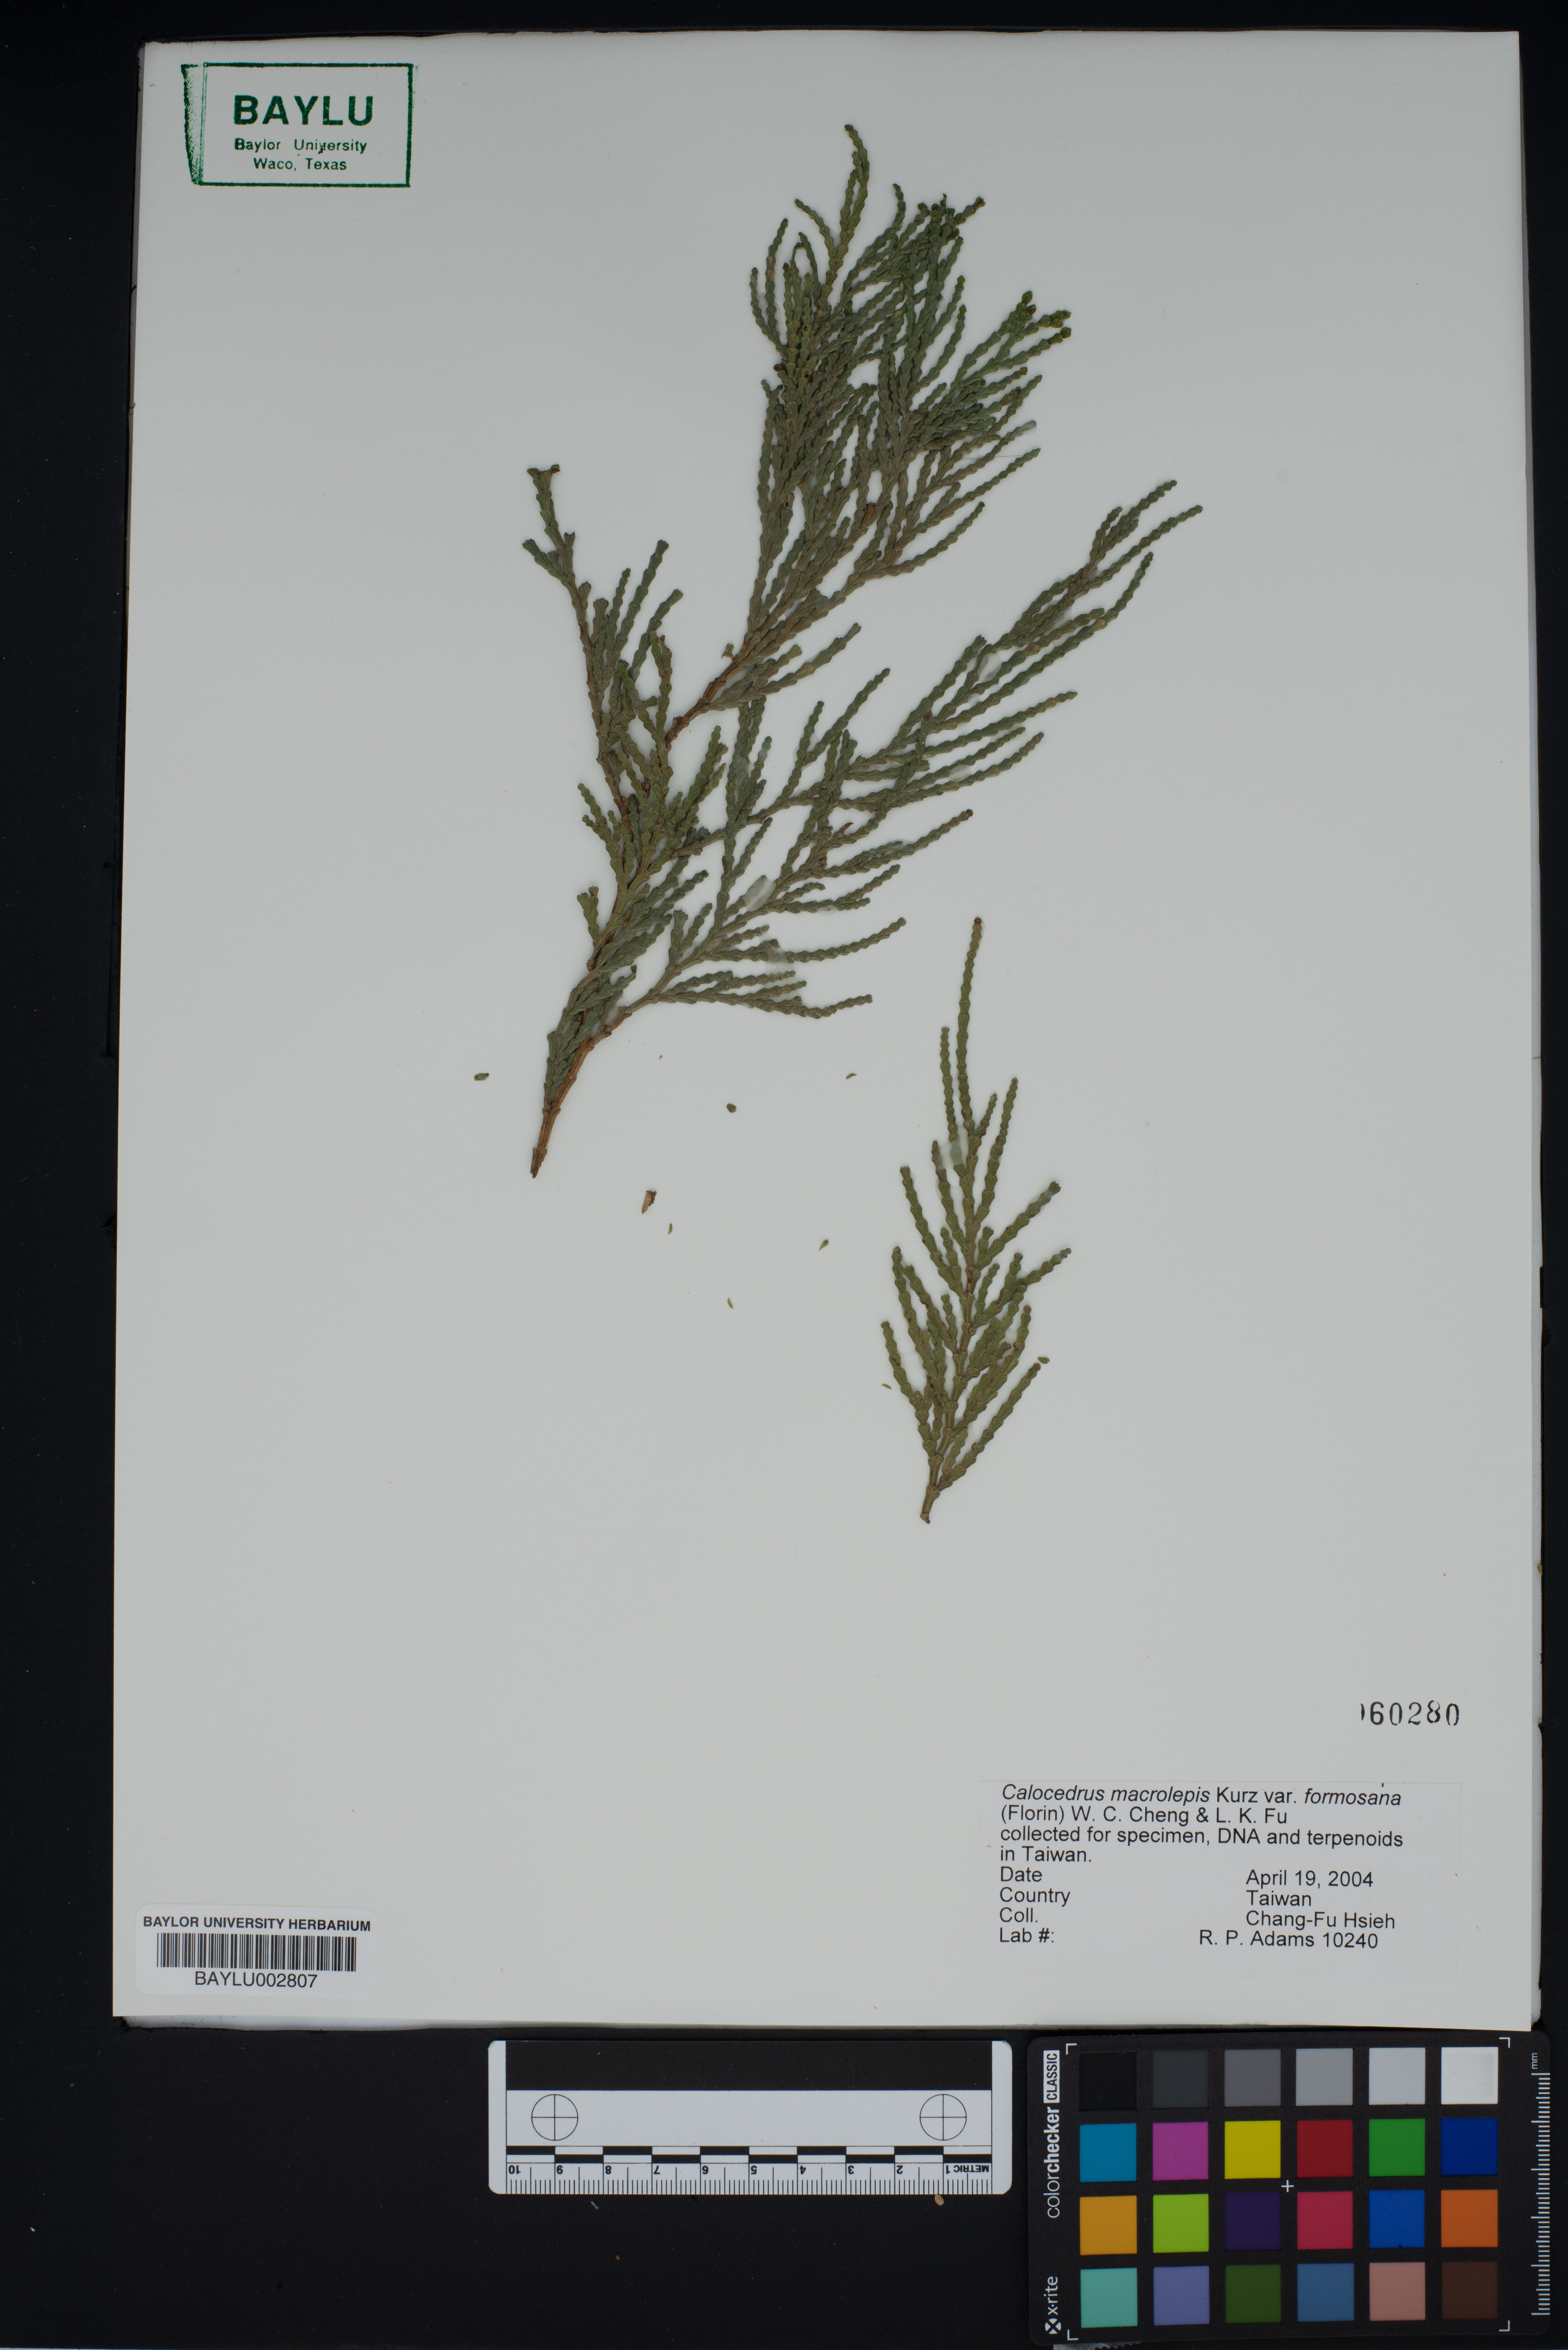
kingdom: Plantae
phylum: Tracheophyta
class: Pinopsida
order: Pinales
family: Cupressaceae
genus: Calocedrus
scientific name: Calocedrus formosana
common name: Taiwan incense-cedar
